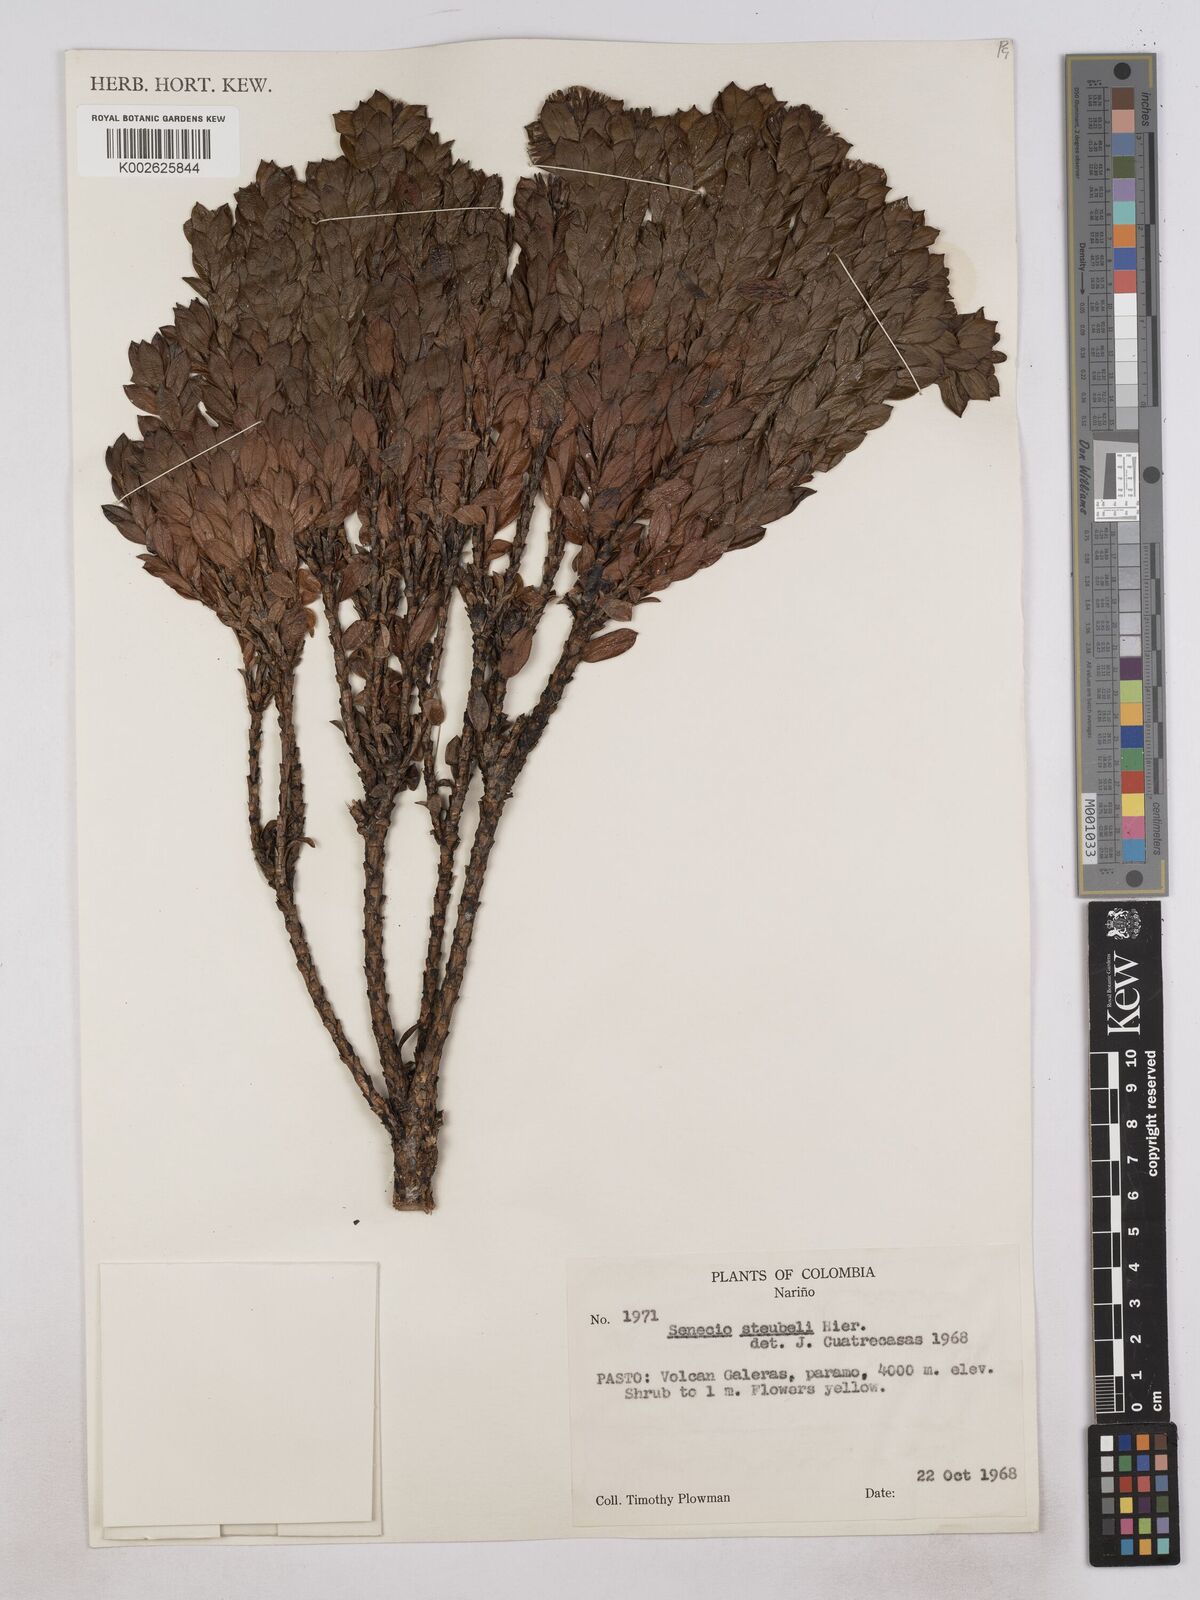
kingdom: Plantae
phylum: Tracheophyta
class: Magnoliopsida
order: Asterales
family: Asteraceae
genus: Monticalia
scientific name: Monticalia stuebelii
